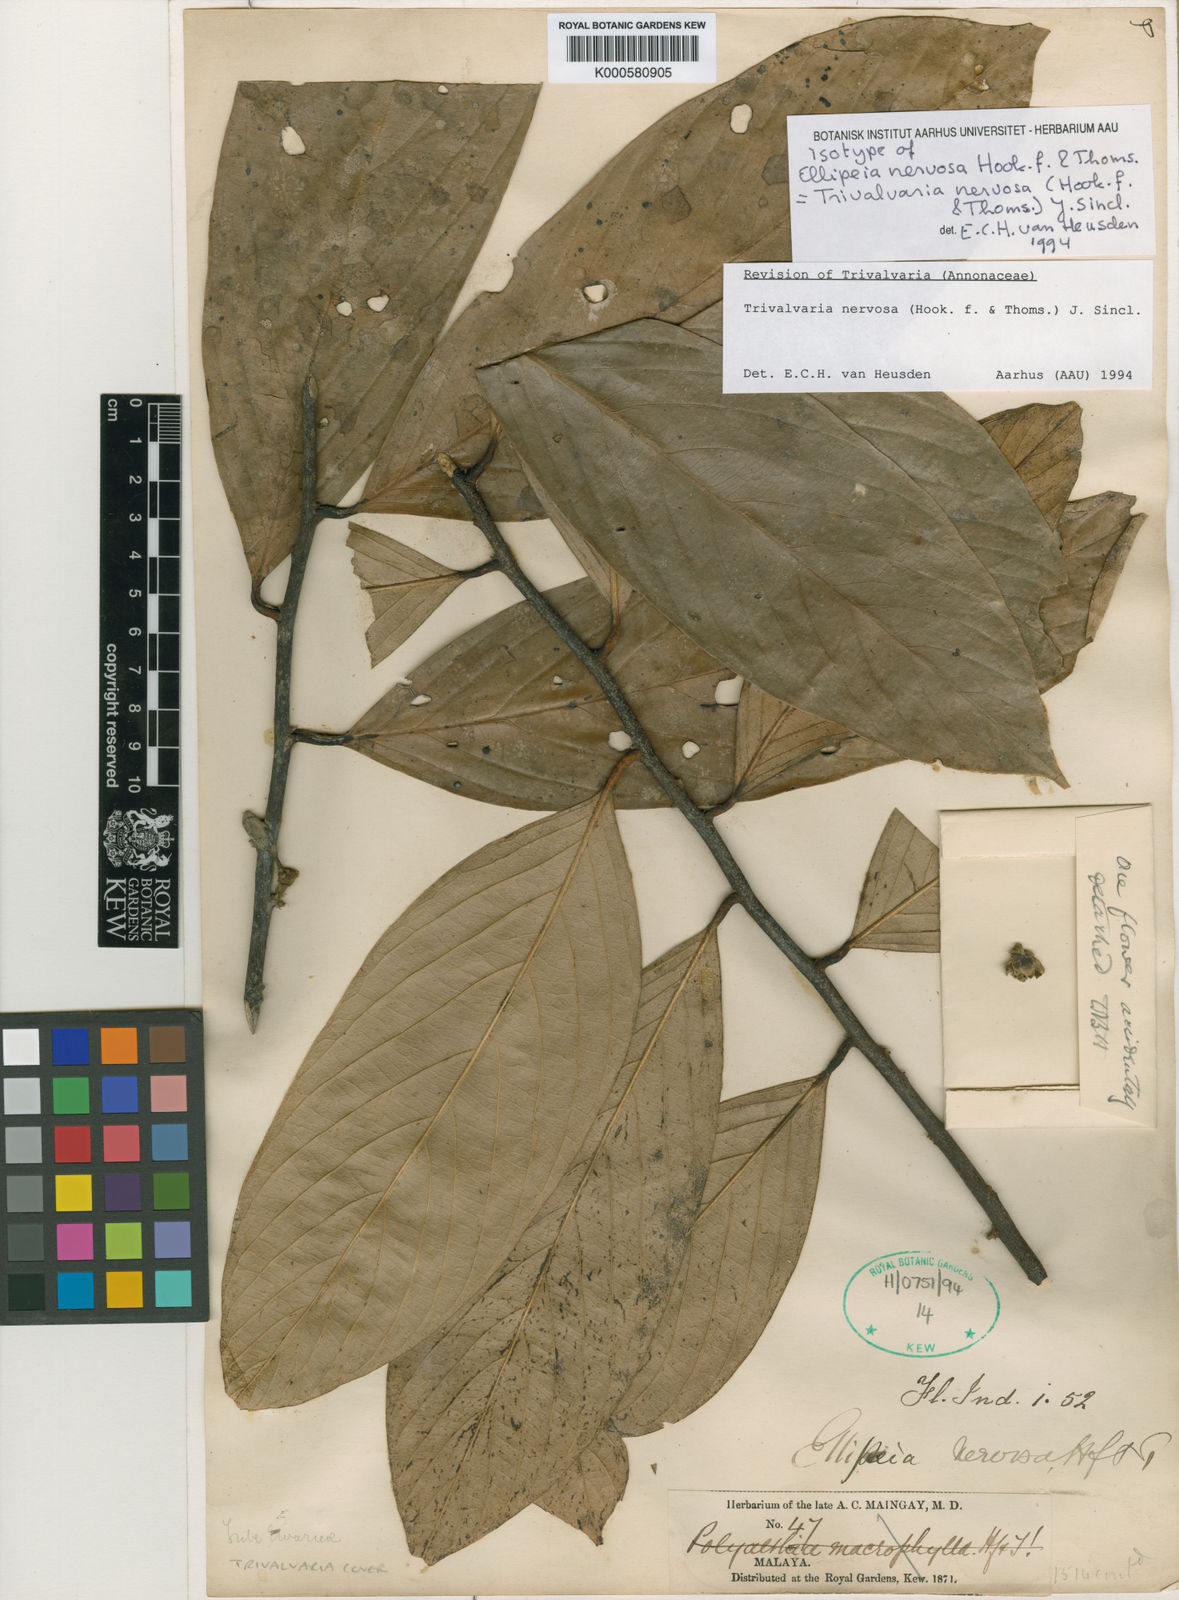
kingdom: Plantae
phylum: Tracheophyta
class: Magnoliopsida
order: Magnoliales
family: Annonaceae
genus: Trivalvaria
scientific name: Trivalvaria nervosa
